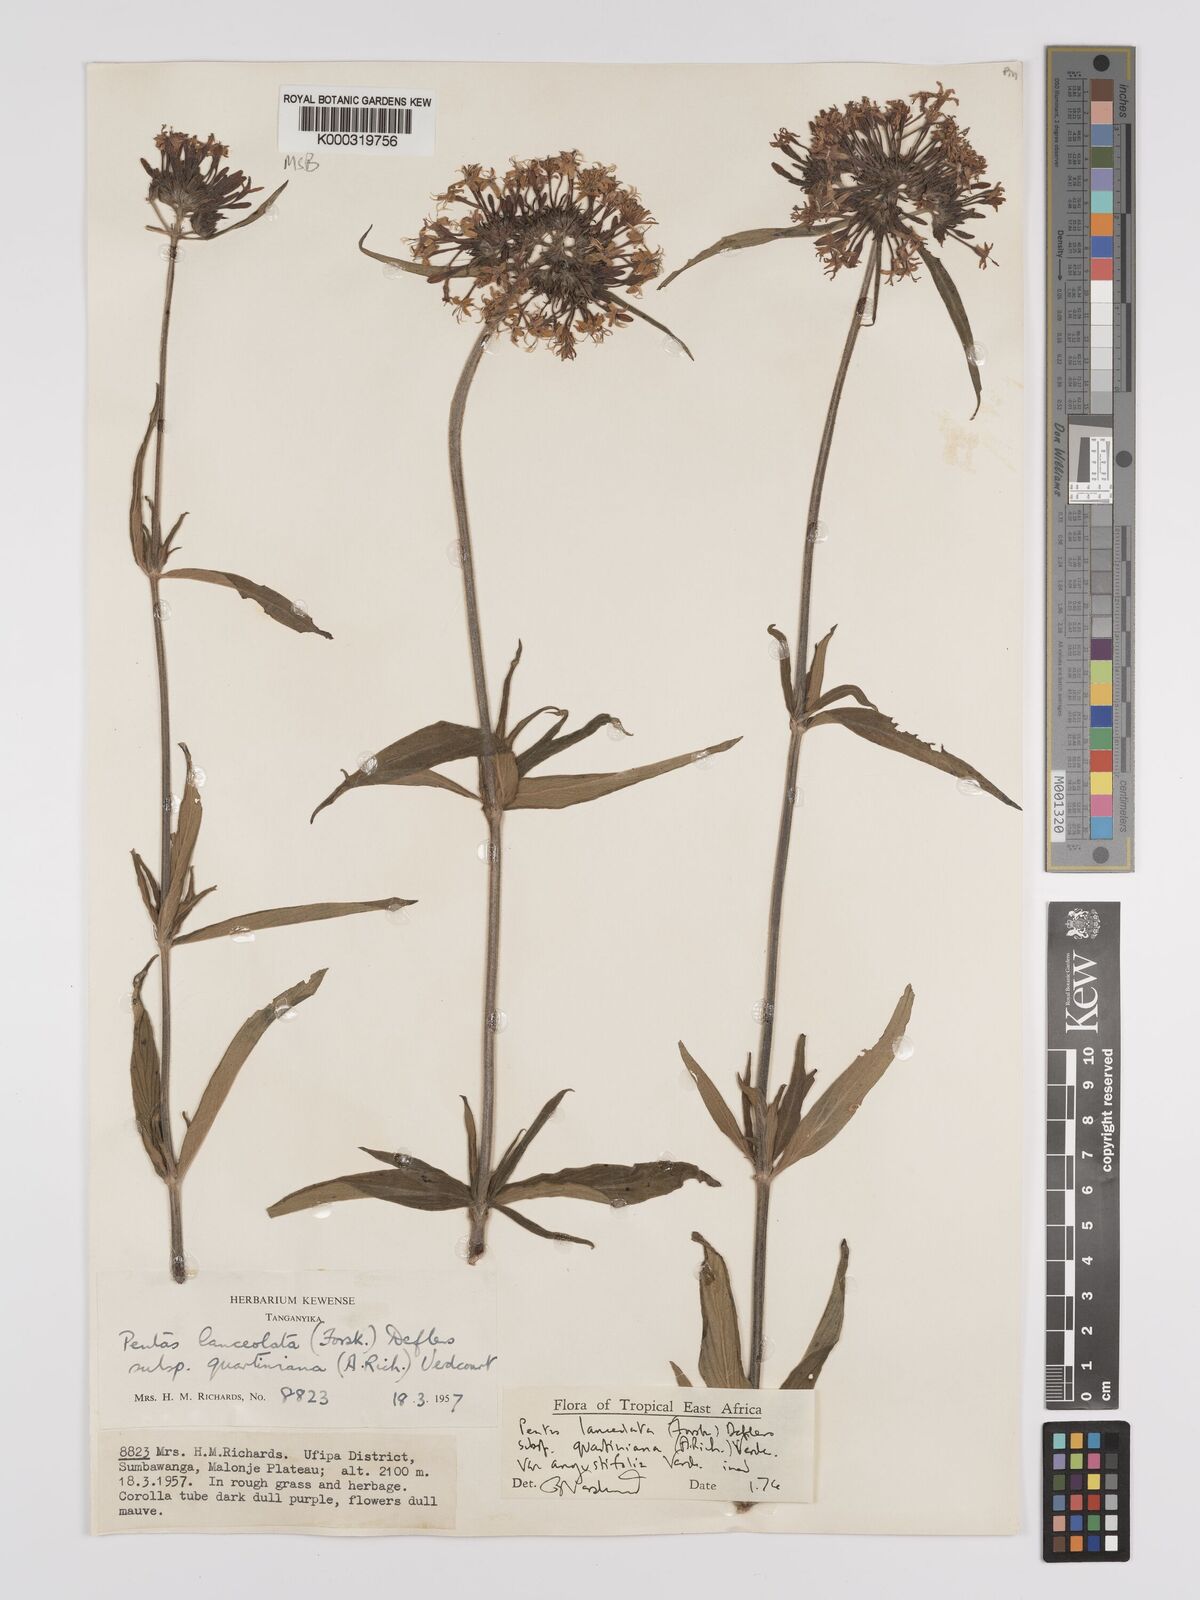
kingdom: Plantae
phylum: Tracheophyta
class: Magnoliopsida
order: Gentianales
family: Rubiaceae
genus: Pentas
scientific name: Pentas lanceolata
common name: Egyptian starcluster
